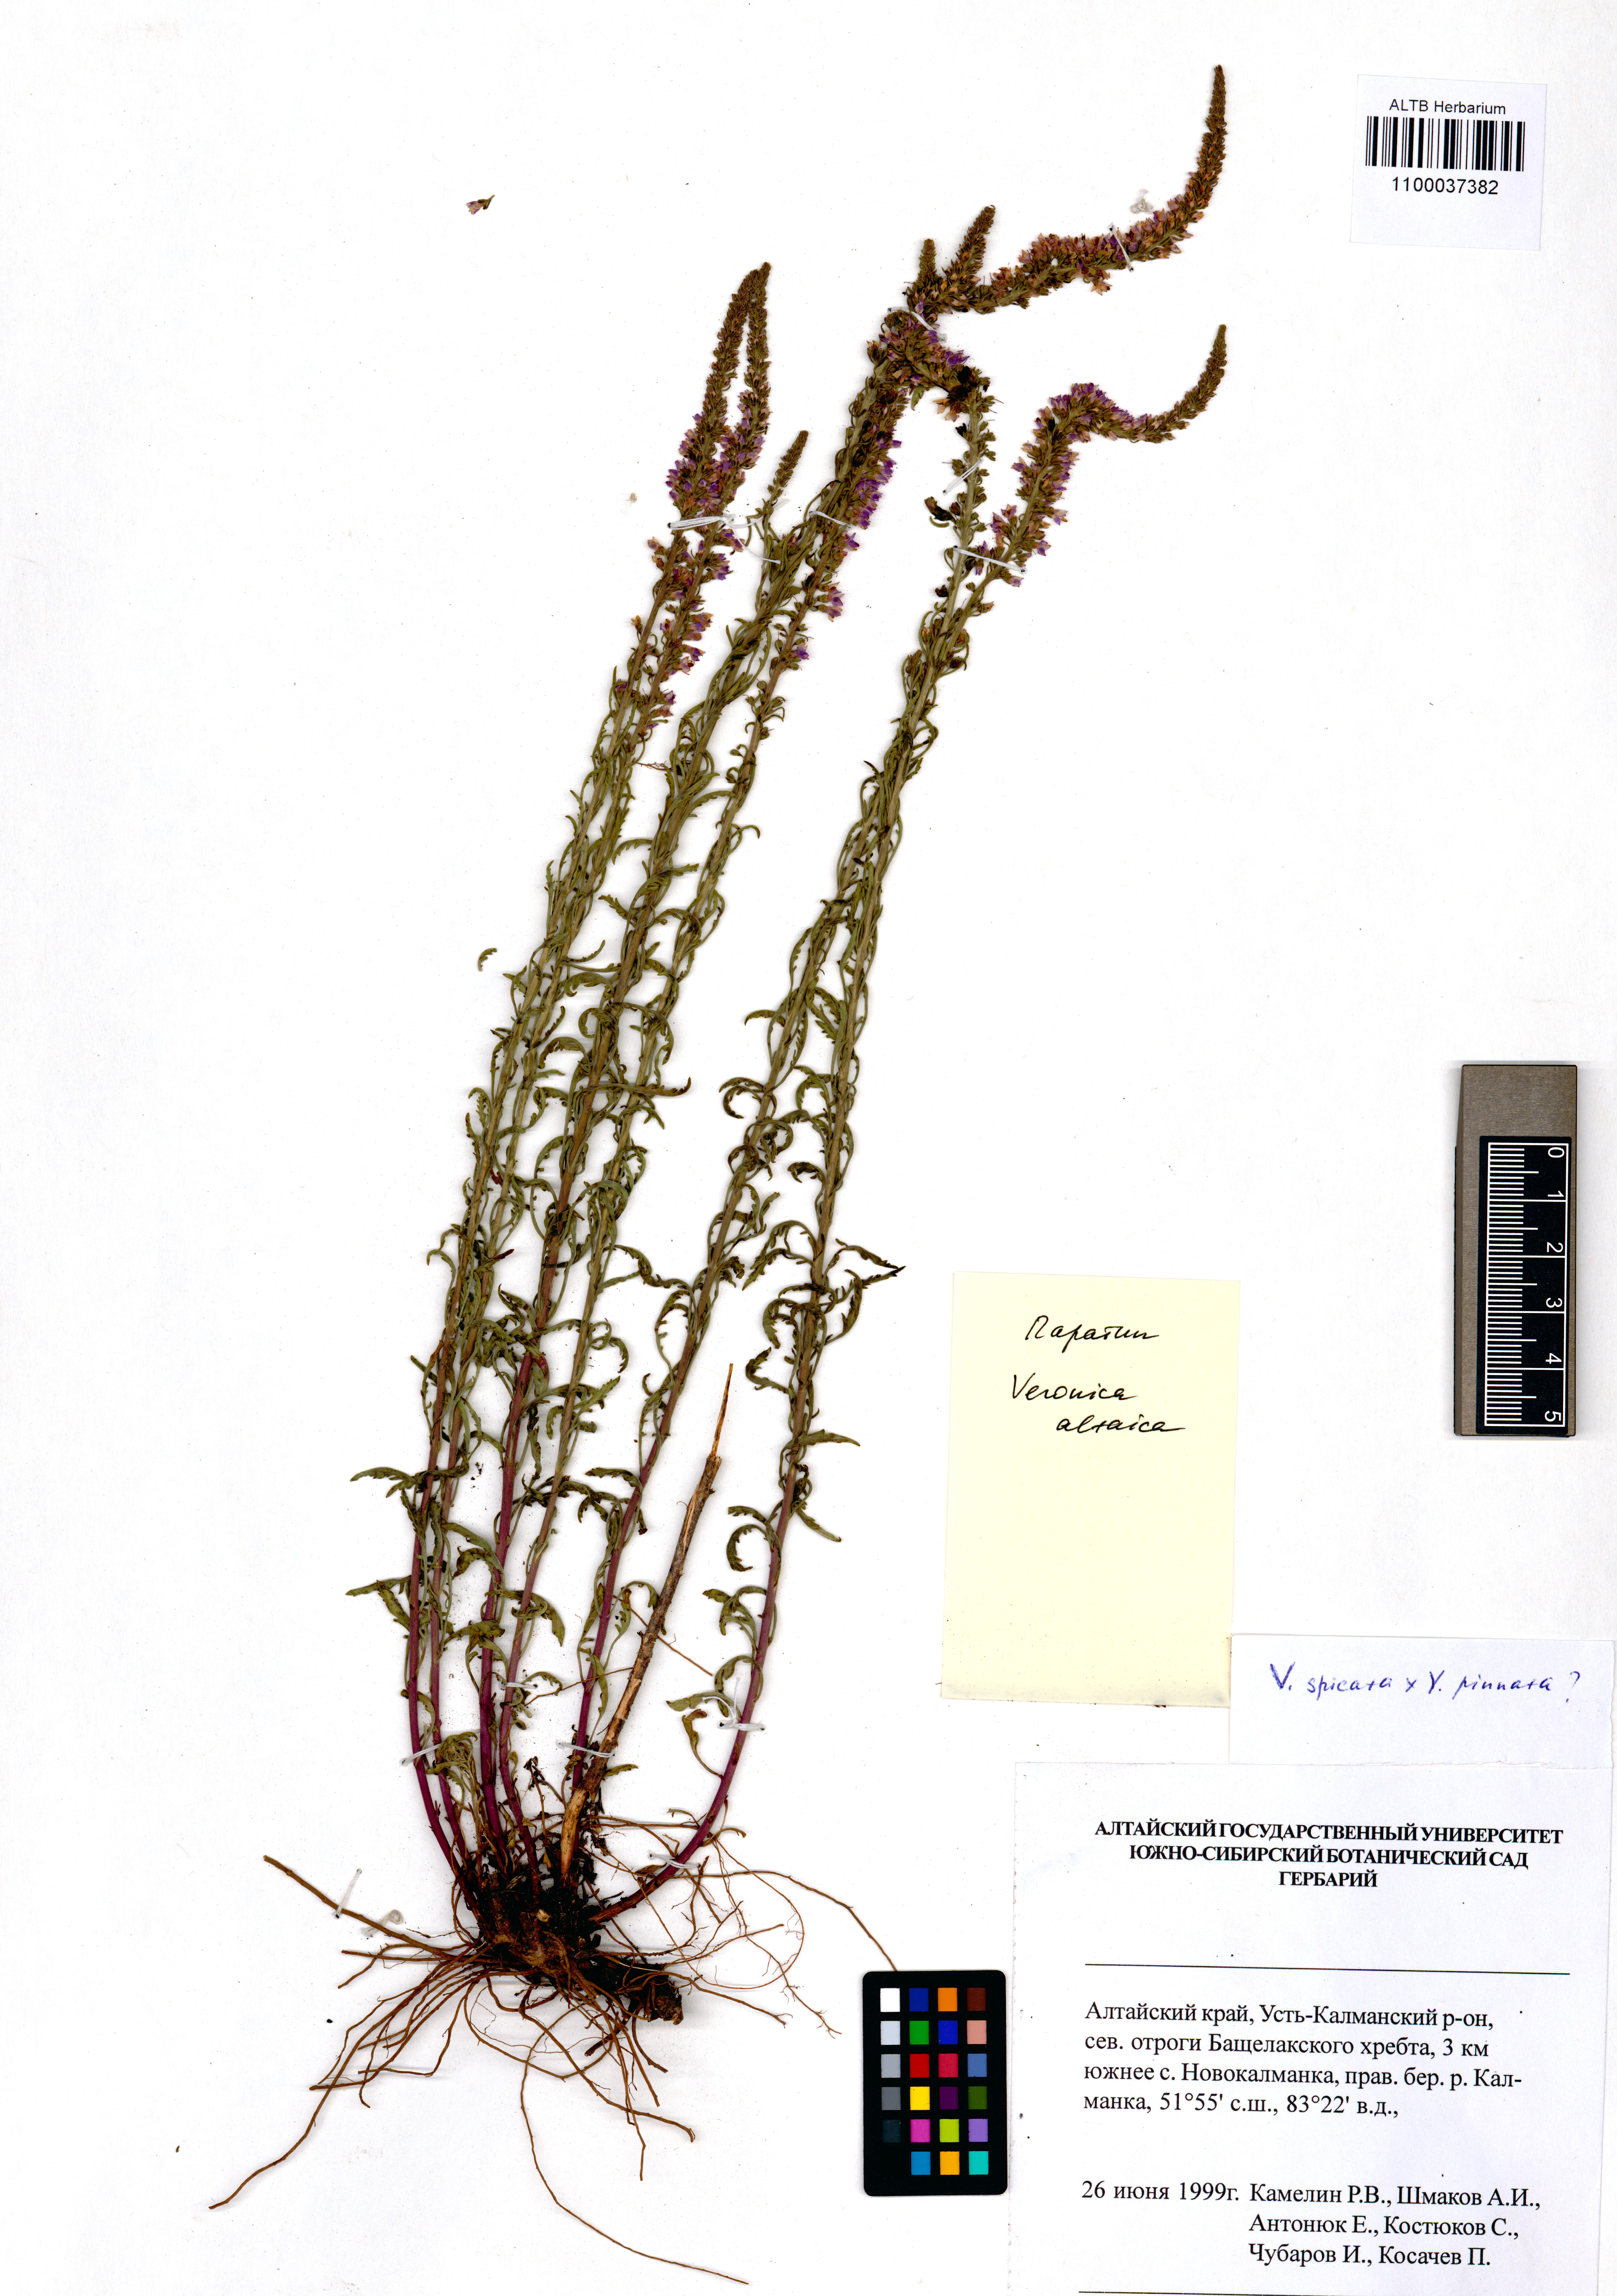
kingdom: Plantae
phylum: Tracheophyta
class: Magnoliopsida
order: Lamiales
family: Plantaginaceae
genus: Veronica
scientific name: Veronica altaica
